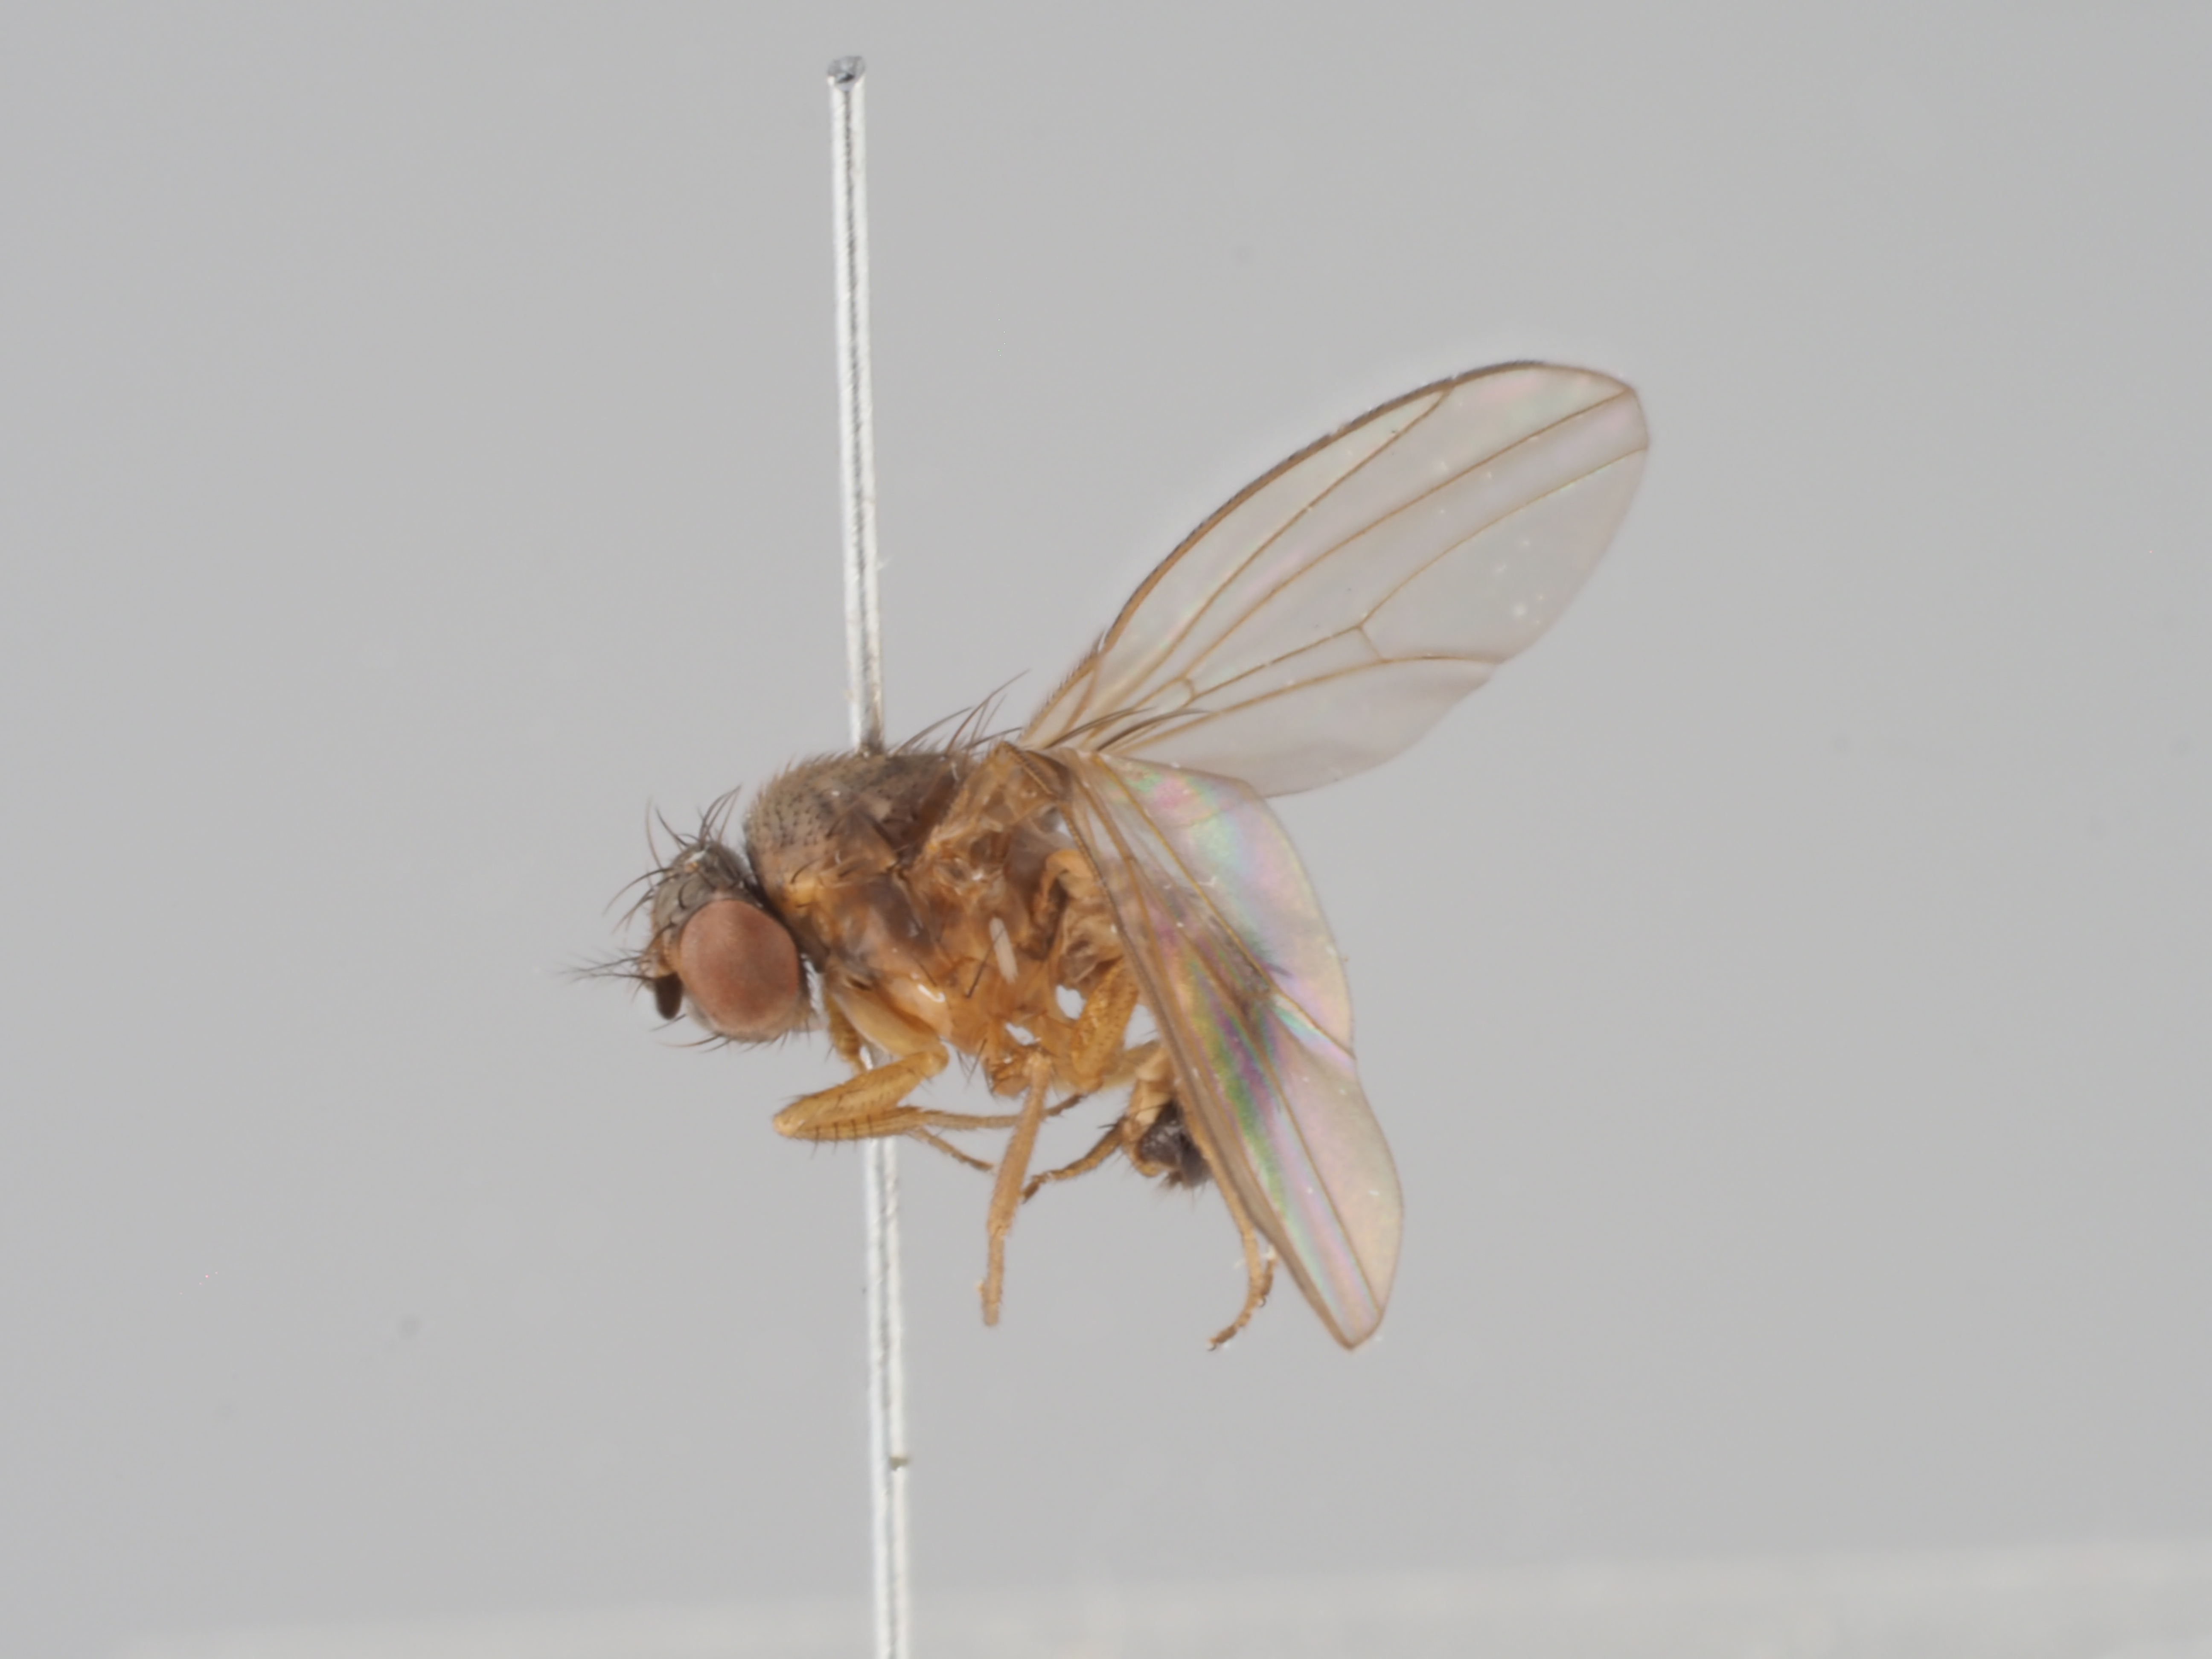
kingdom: Animalia
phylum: Arthropoda
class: Insecta
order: Diptera
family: Drosophilidae
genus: Drosophila
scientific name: Drosophila alpina
